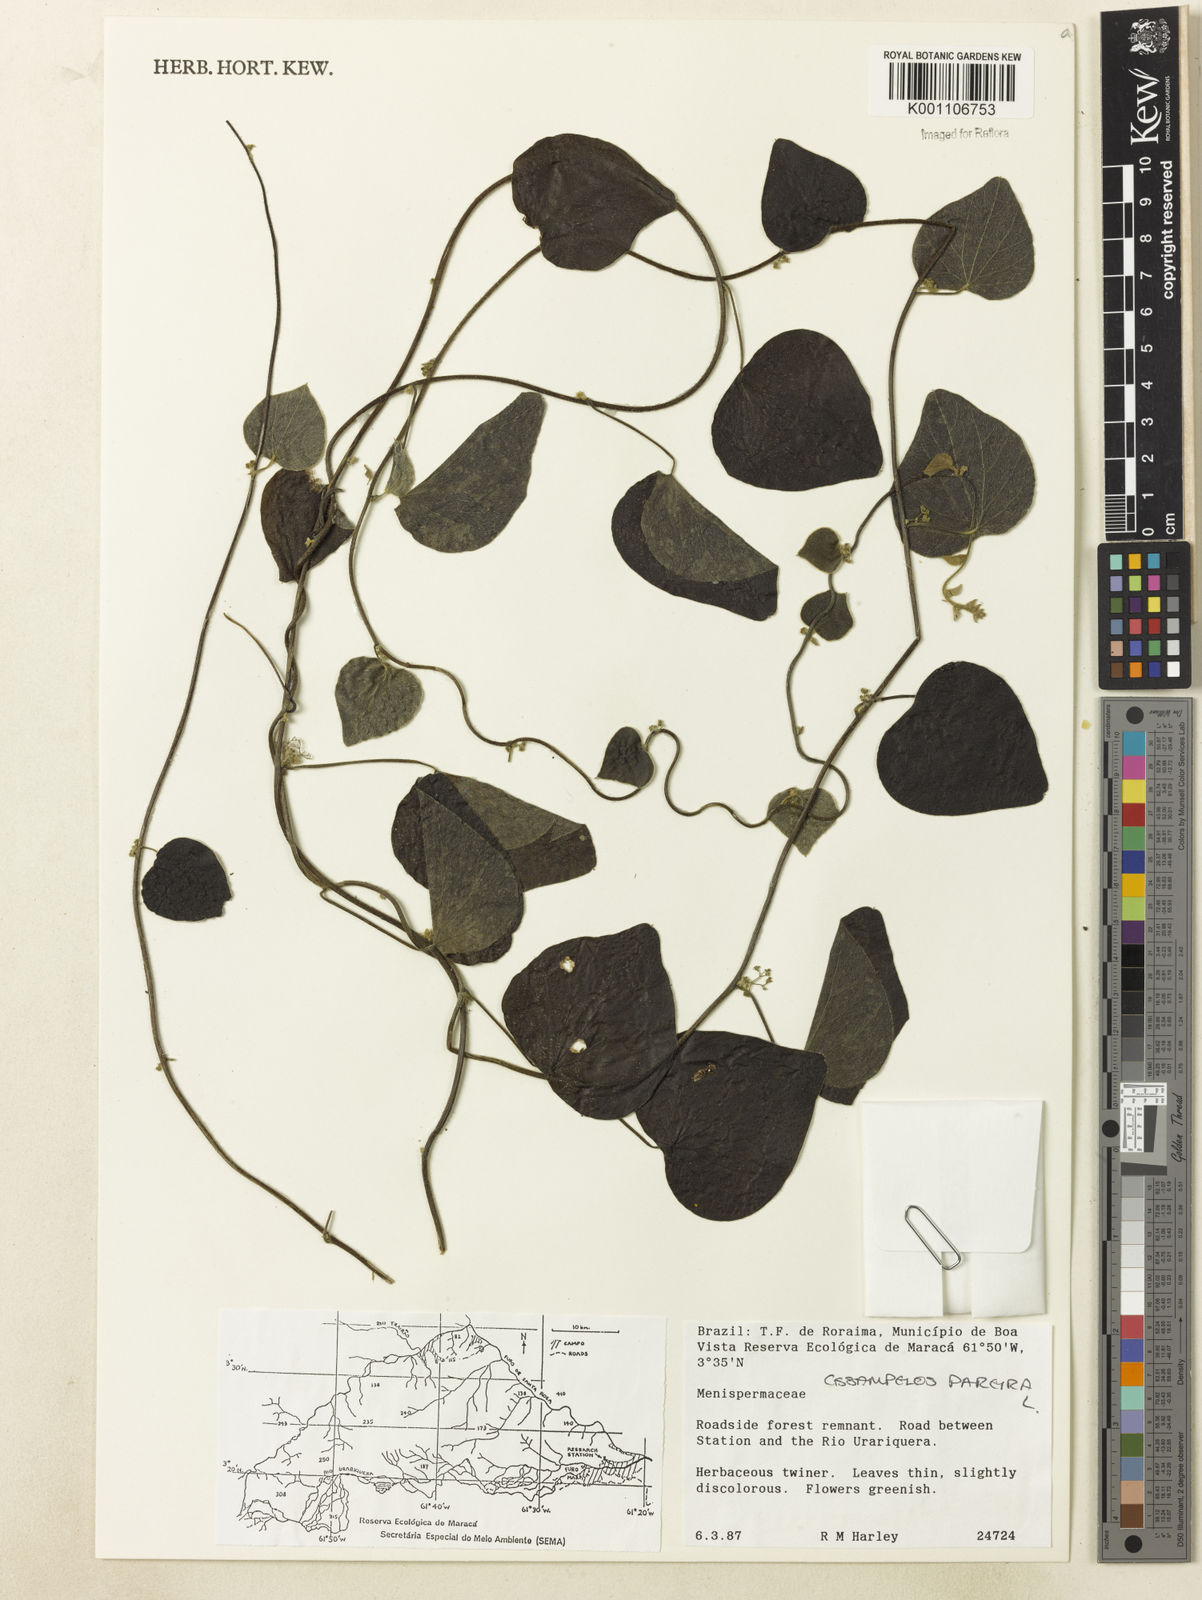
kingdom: Plantae
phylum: Tracheophyta
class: Magnoliopsida
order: Ranunculales
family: Menispermaceae
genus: Cissampelos
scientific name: Cissampelos pareira
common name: Velvetleaf
